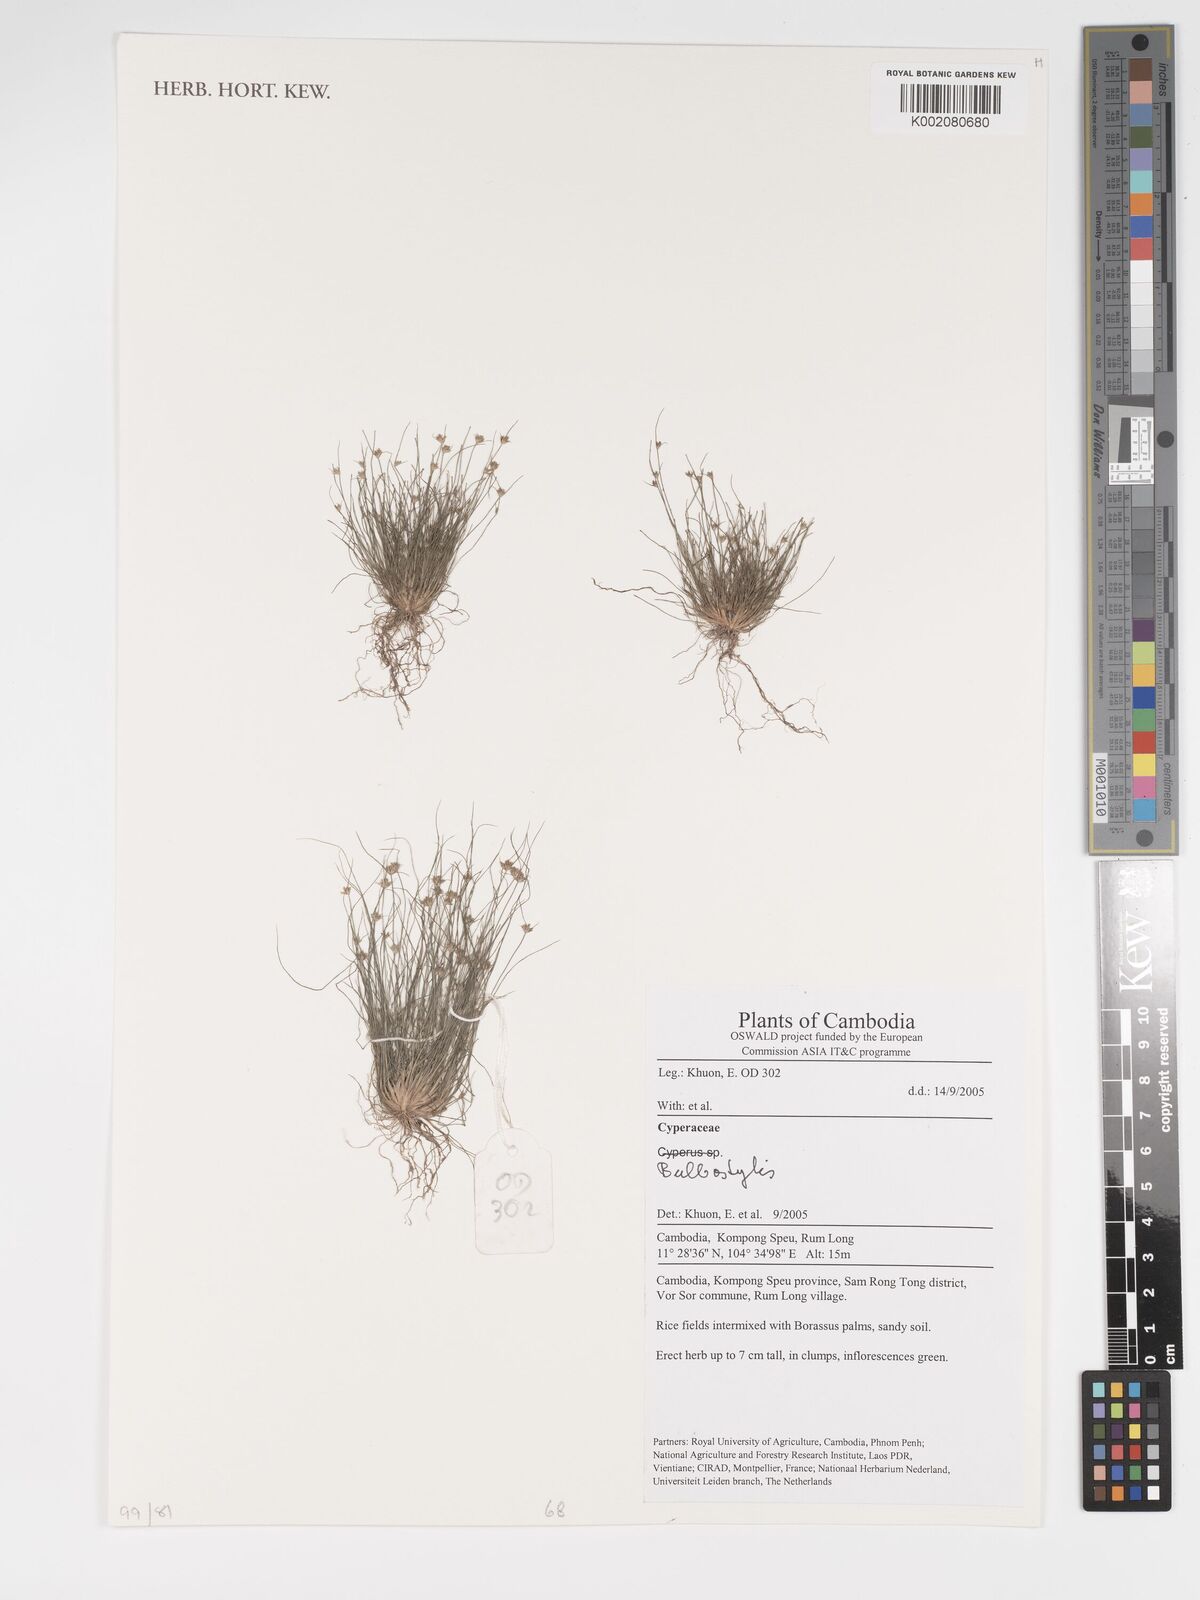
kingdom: Plantae
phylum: Tracheophyta
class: Magnoliopsida
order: Asterales
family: Asteraceae
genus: Bulbostylis
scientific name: Bulbostylis
